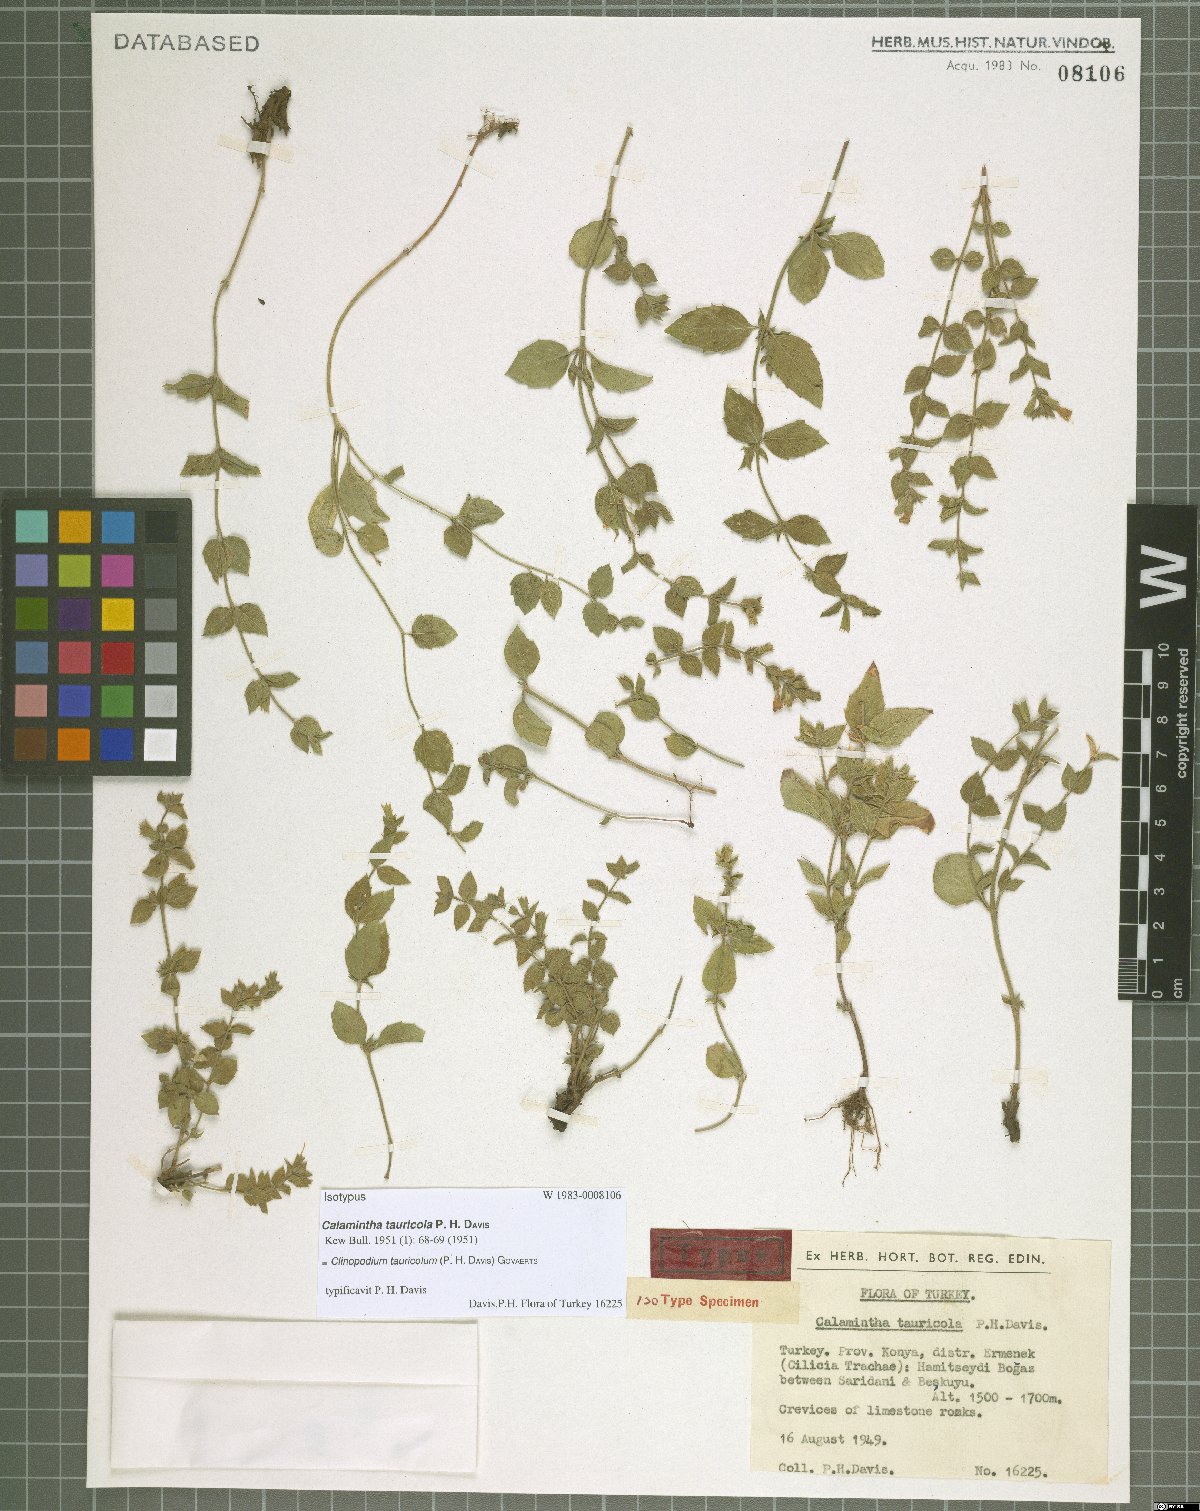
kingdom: Plantae
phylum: Tracheophyta
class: Magnoliopsida
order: Lamiales
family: Lamiaceae
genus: Clinopodium
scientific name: Clinopodium tauricola
